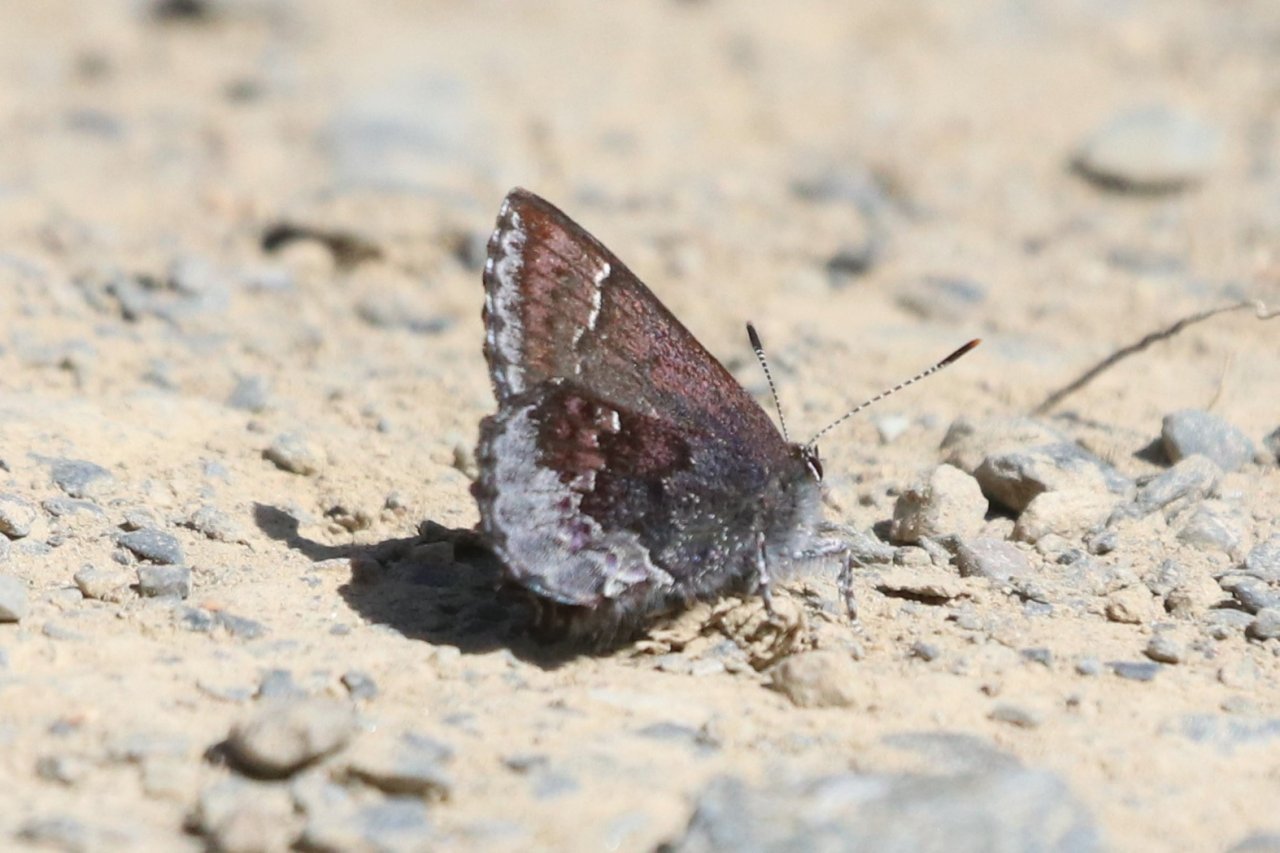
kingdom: Animalia
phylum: Arthropoda
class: Insecta
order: Lepidoptera
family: Lycaenidae
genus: Callophrys
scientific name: Callophrys polios
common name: Hoary Elfin
